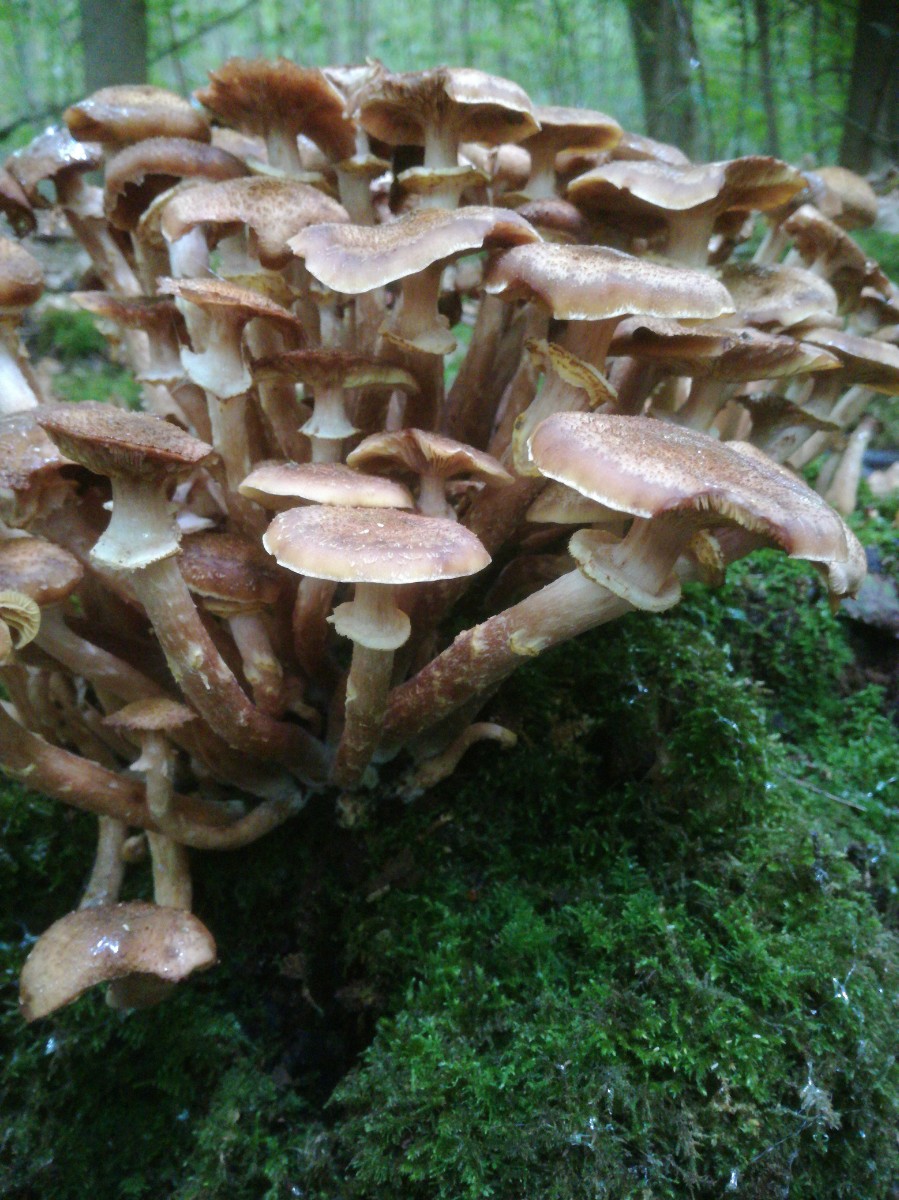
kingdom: Fungi
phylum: Basidiomycota
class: Agaricomycetes
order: Agaricales
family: Physalacriaceae
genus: Armillaria
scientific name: Armillaria borealis
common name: nordlig honningsvamp
